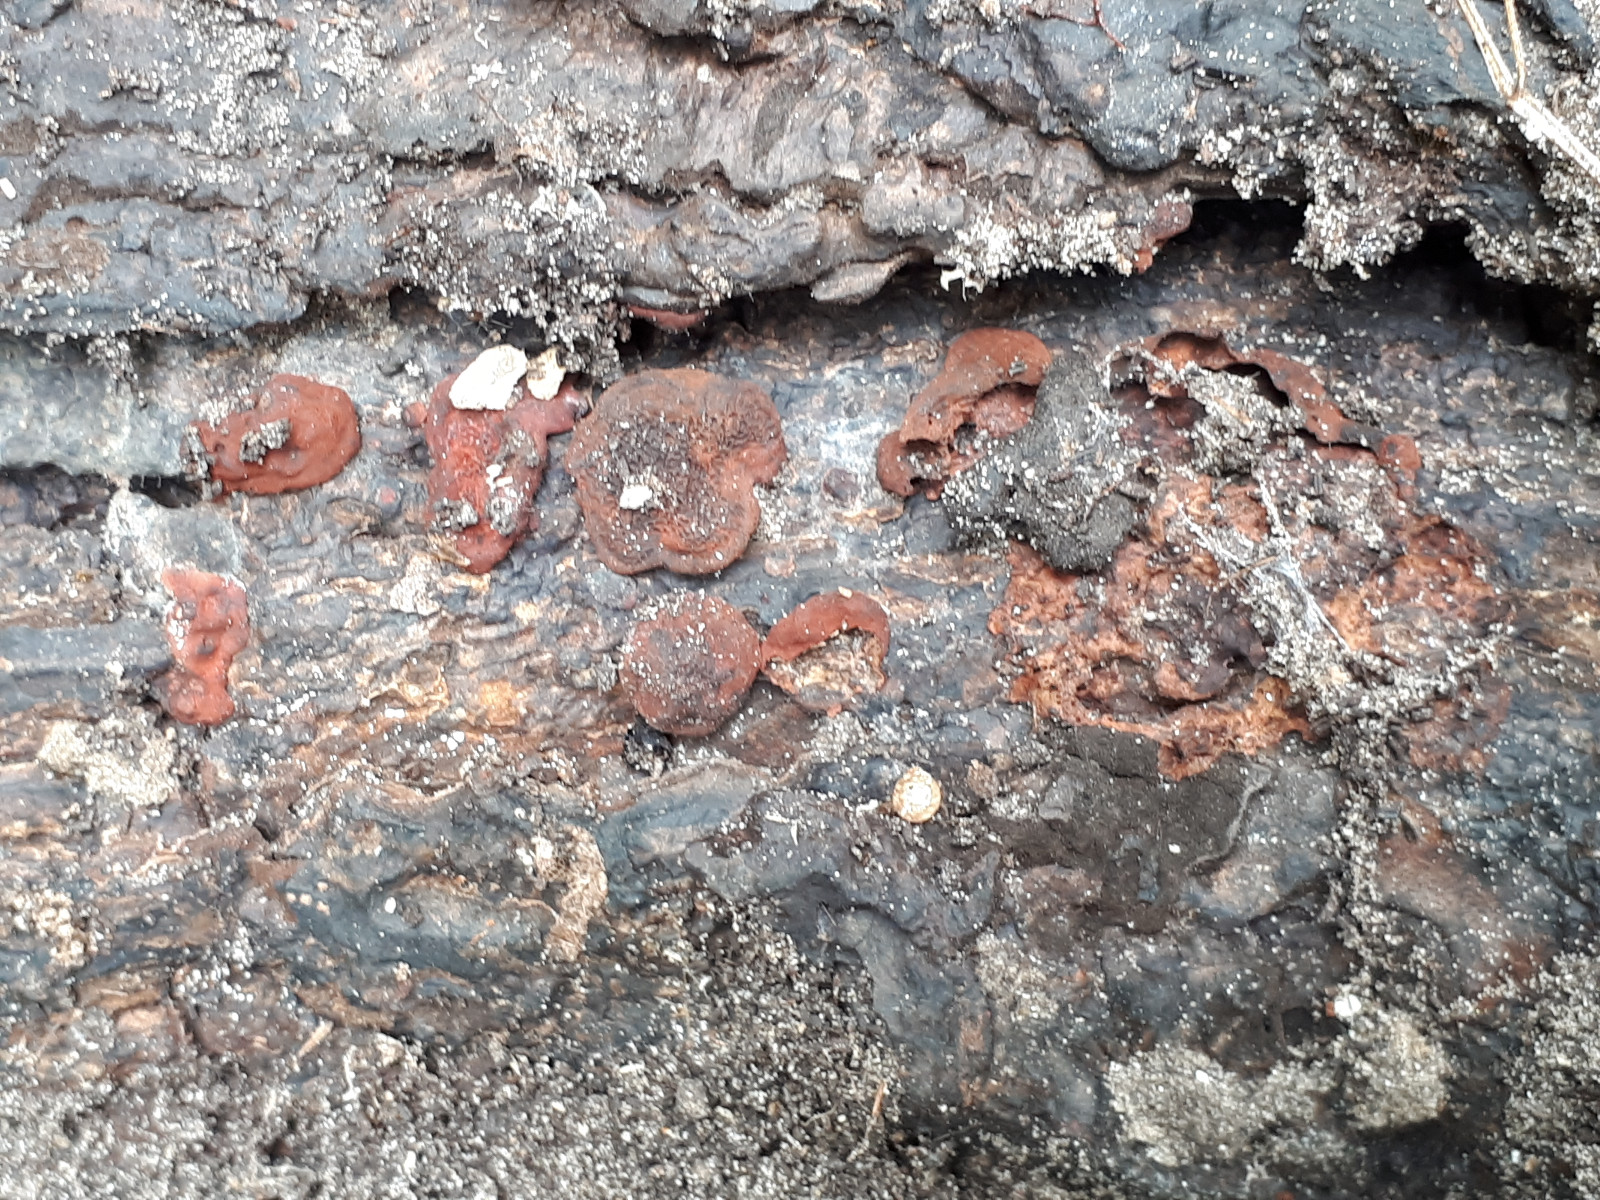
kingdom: Fungi
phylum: Ascomycota
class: Sordariomycetes
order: Xylariales
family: Hypoxylaceae
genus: Hypoxylon
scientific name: Hypoxylon
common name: kulbær
